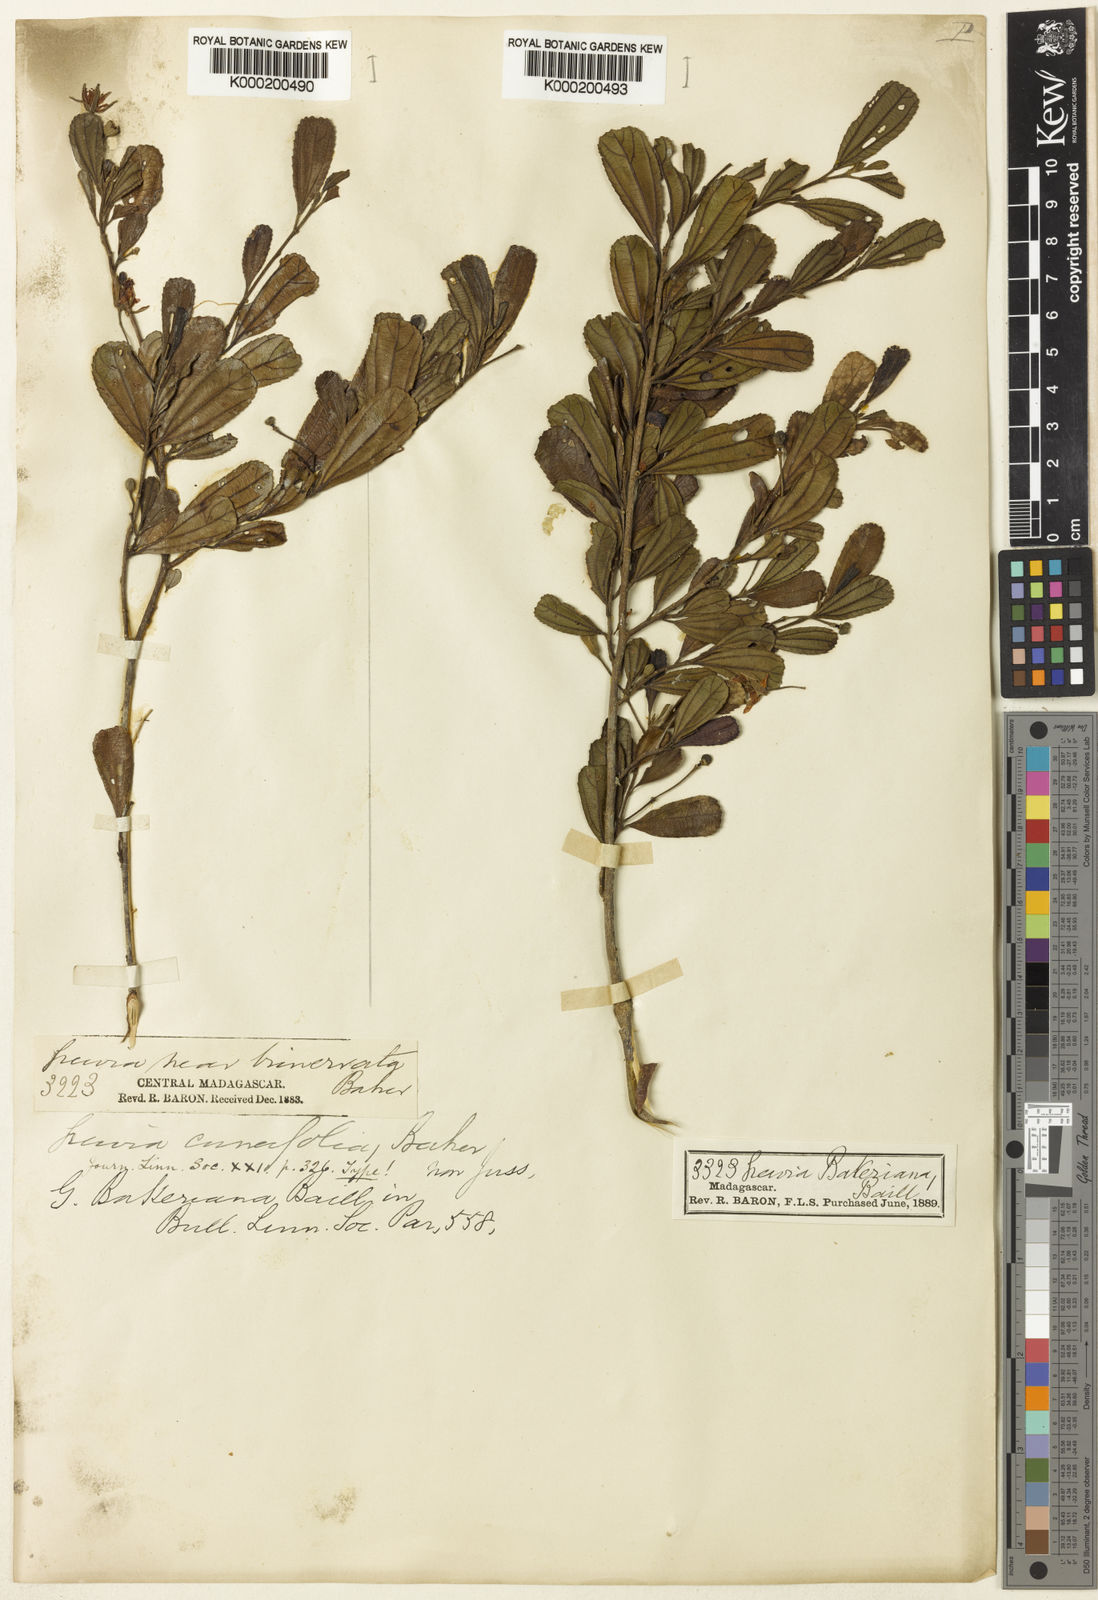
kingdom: Plantae
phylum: Tracheophyta
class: Magnoliopsida
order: Malvales
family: Malvaceae
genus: Grewia
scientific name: Grewia bakeriana
